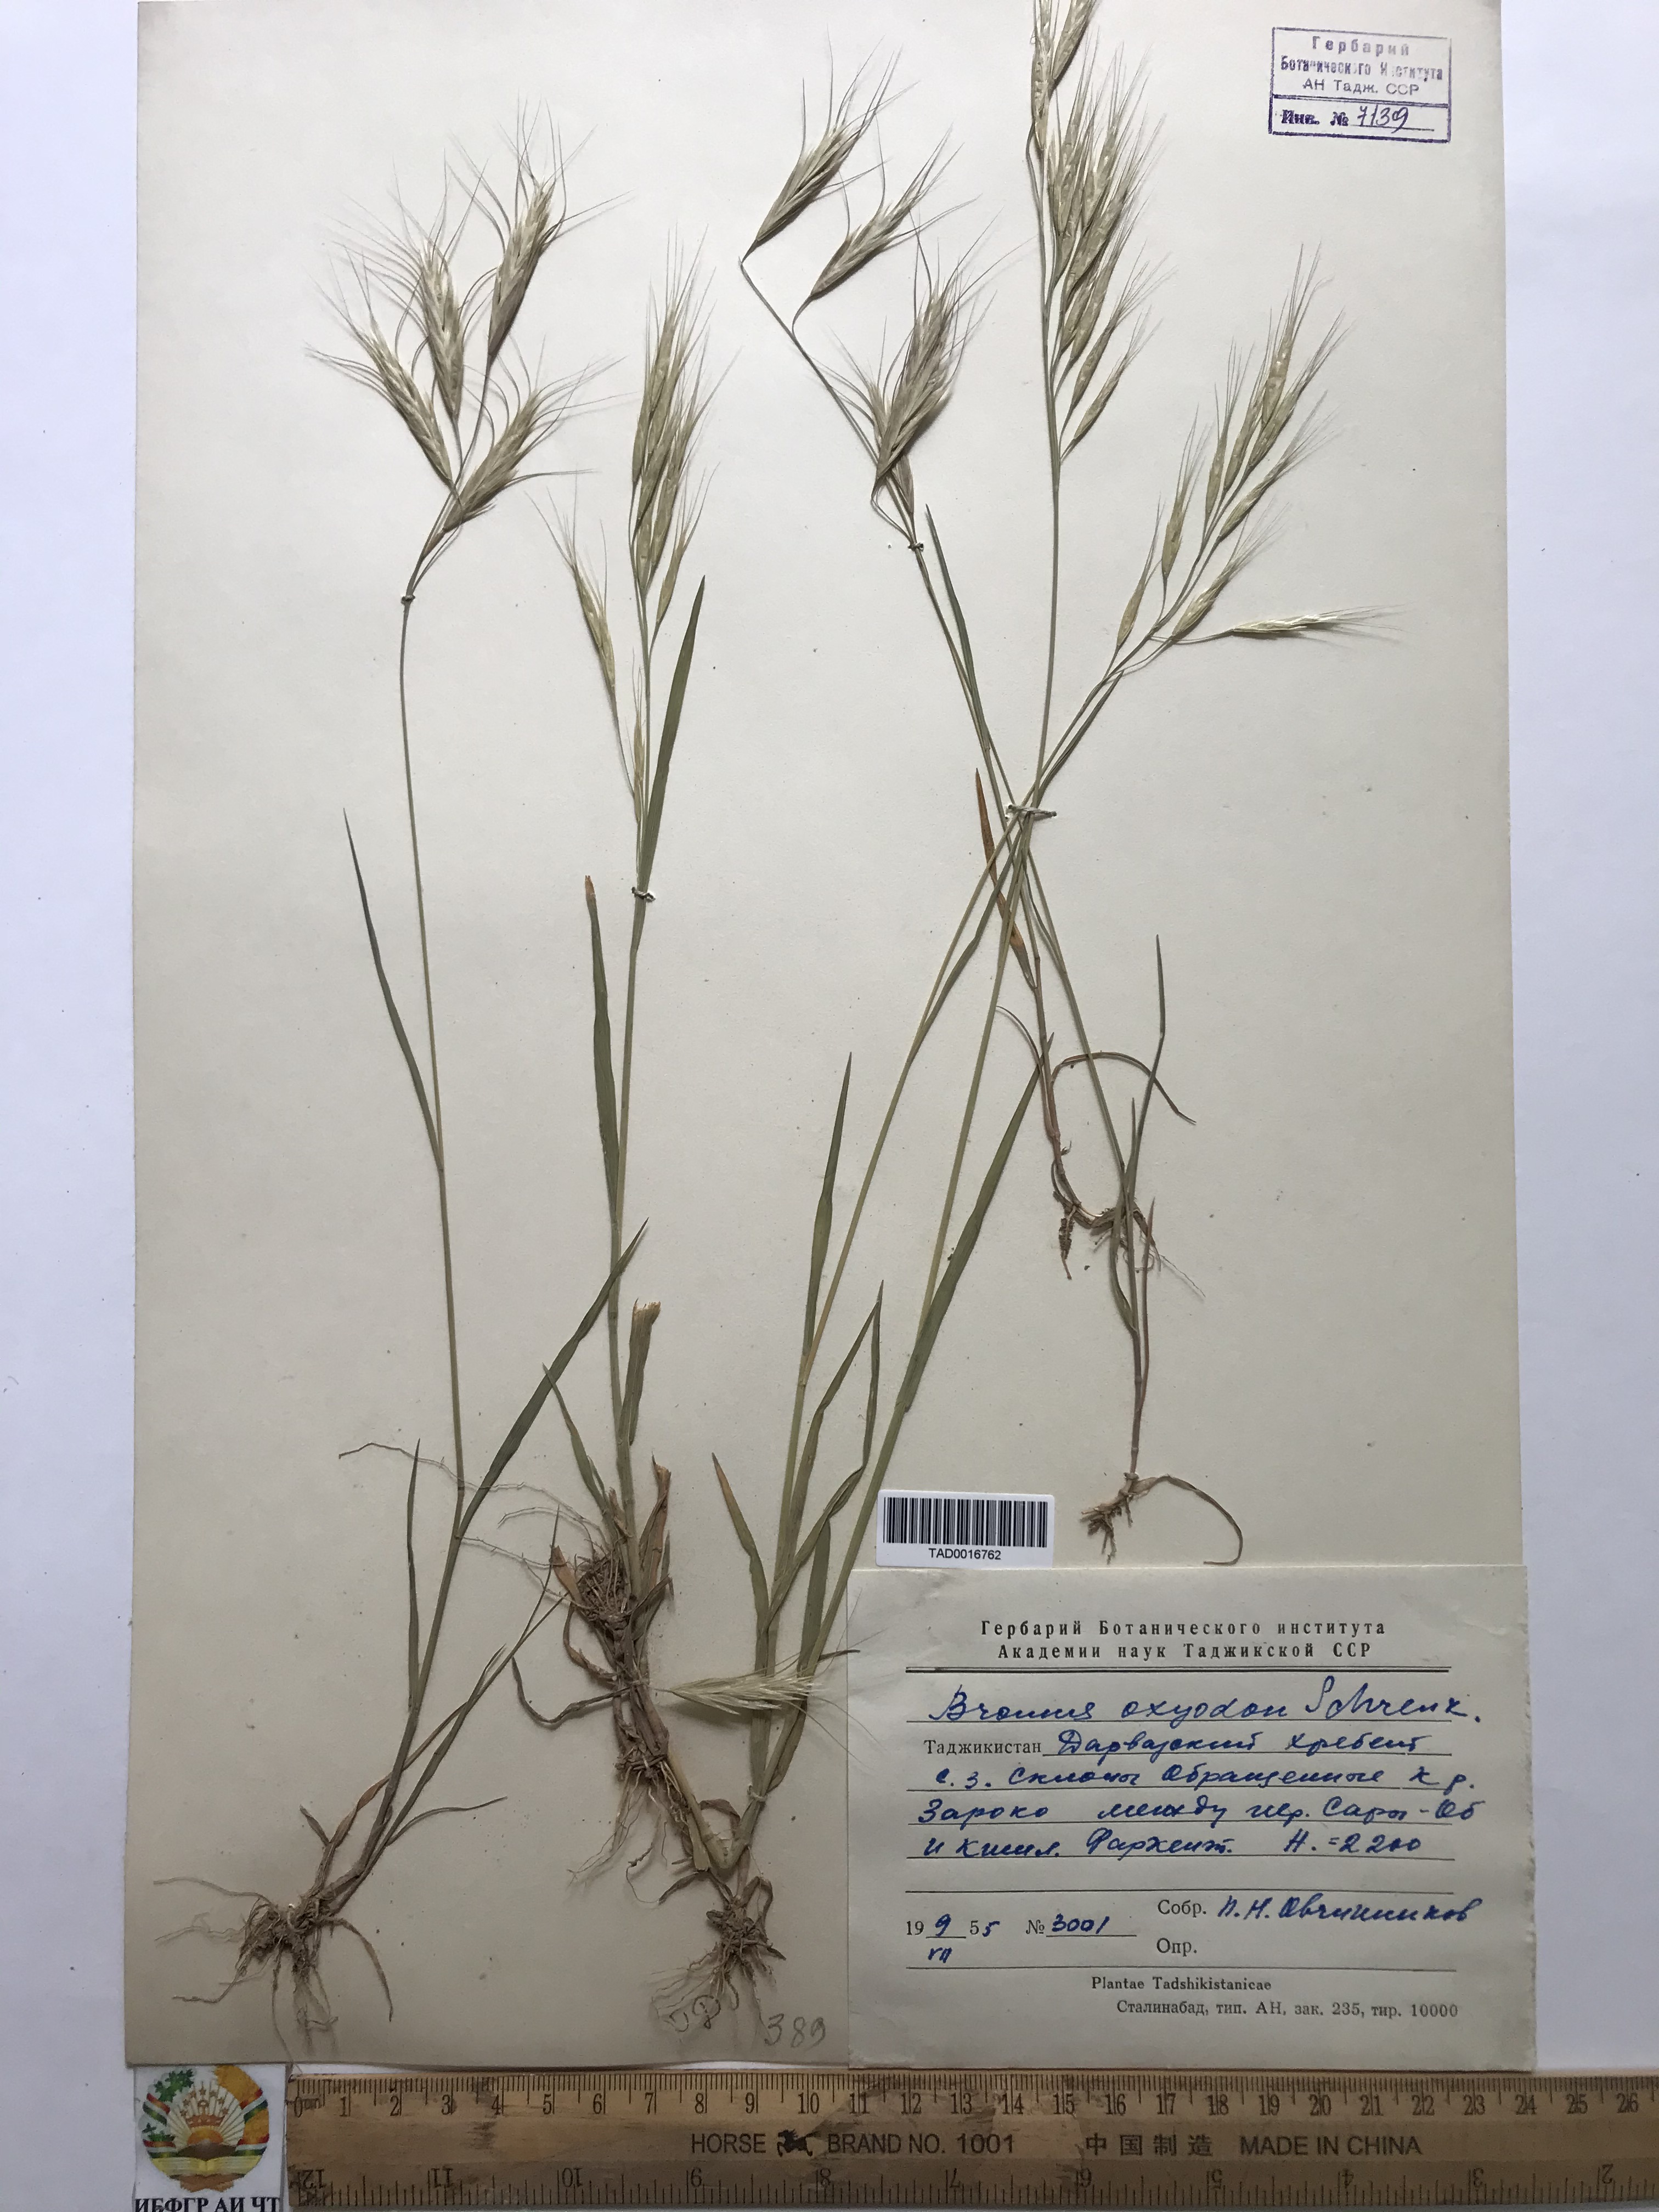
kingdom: Plantae
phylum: Tracheophyta
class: Liliopsida
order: Poales
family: Poaceae
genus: Bromus
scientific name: Bromus oxyodon
